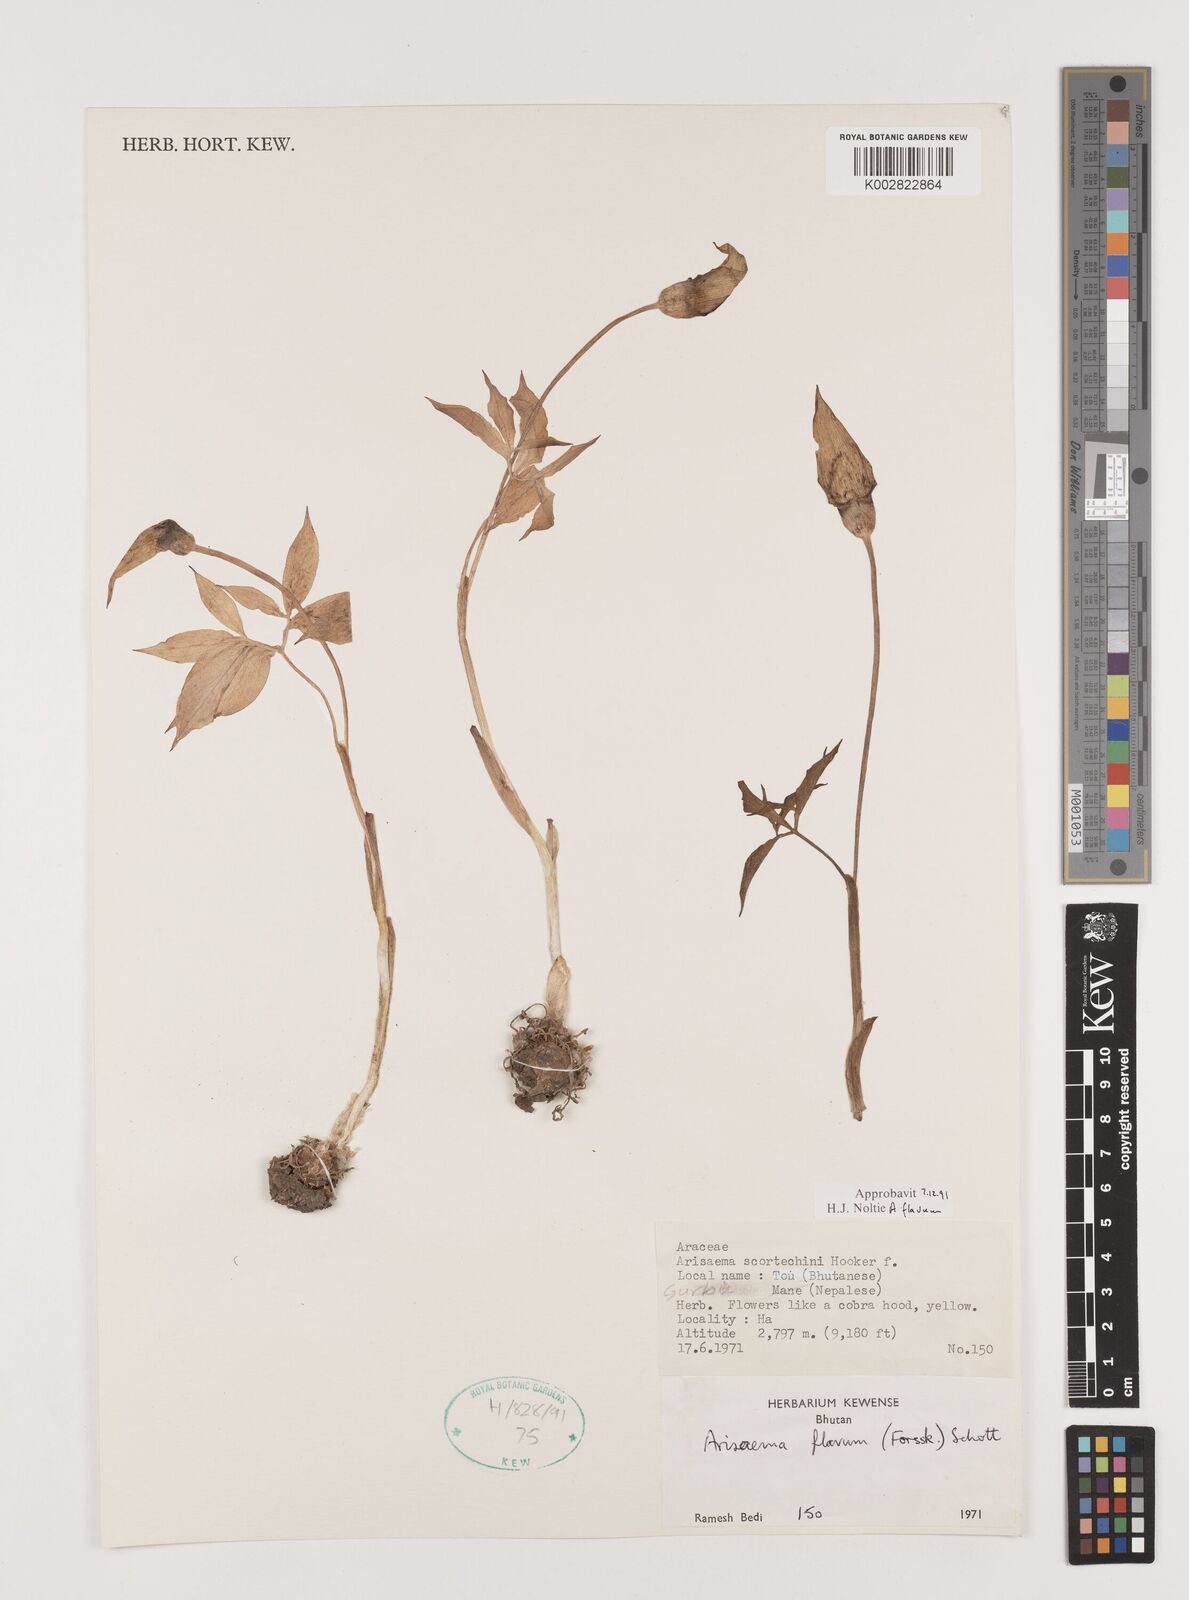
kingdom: Plantae
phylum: Tracheophyta
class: Liliopsida
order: Alismatales
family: Araceae
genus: Arisaema
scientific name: Arisaema flavum
